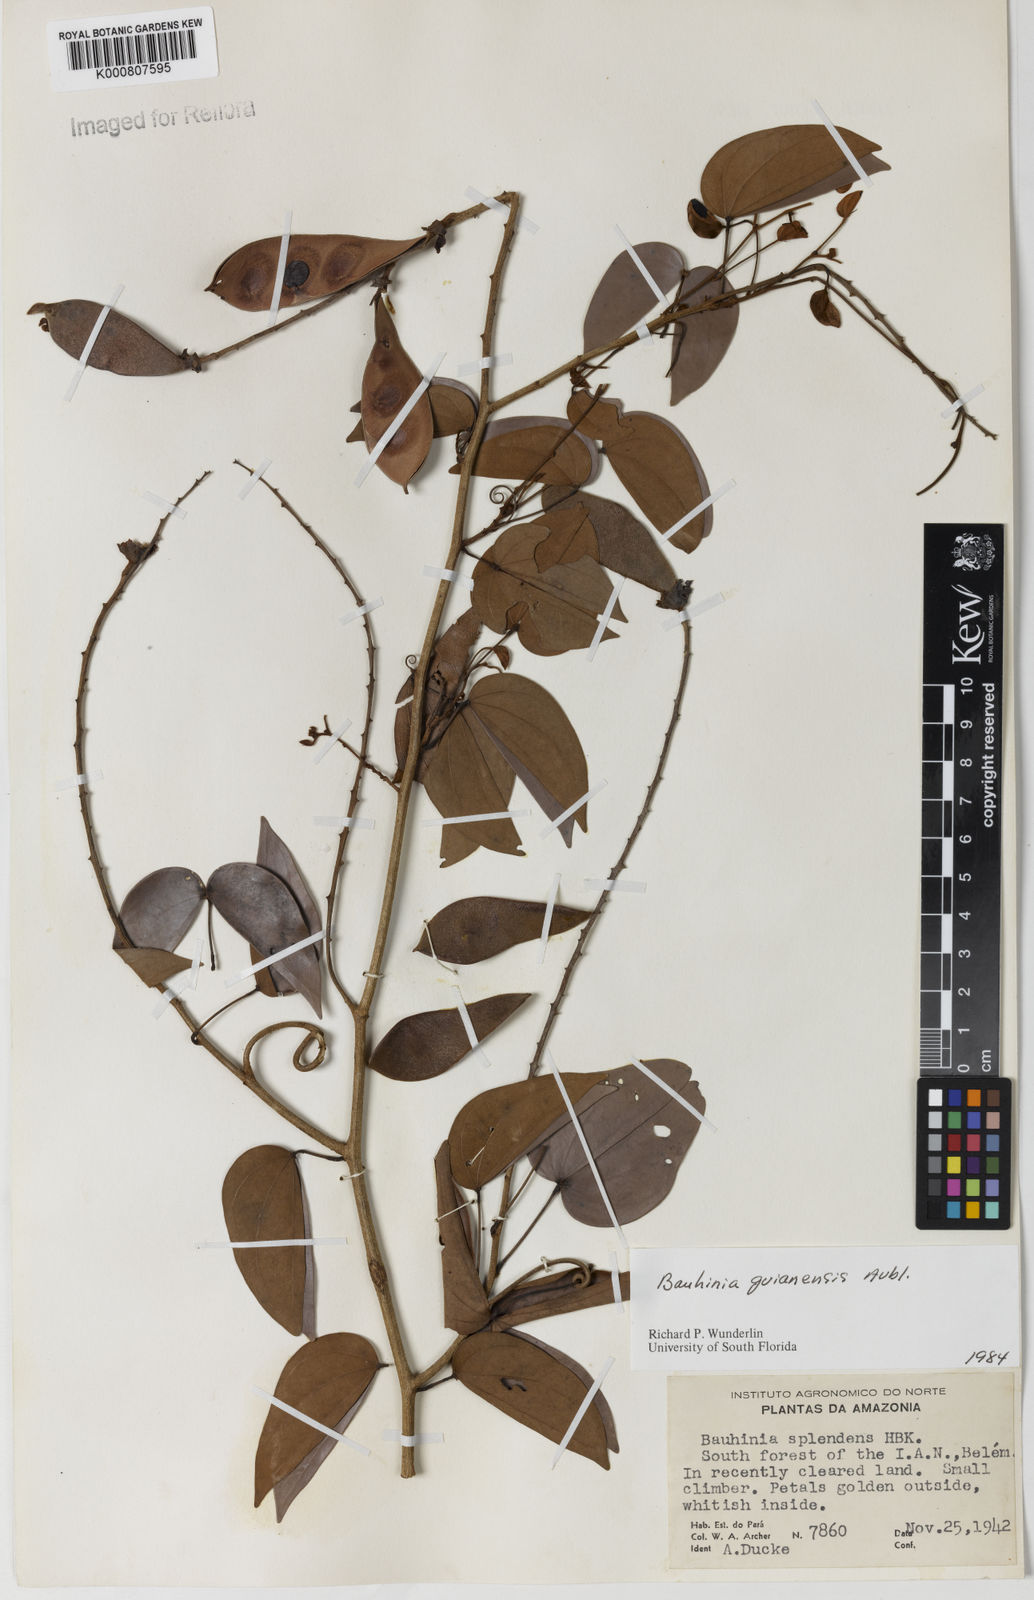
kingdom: Plantae
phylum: Tracheophyta
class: Magnoliopsida
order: Fabales
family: Fabaceae
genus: Schnella
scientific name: Schnella guianensis
